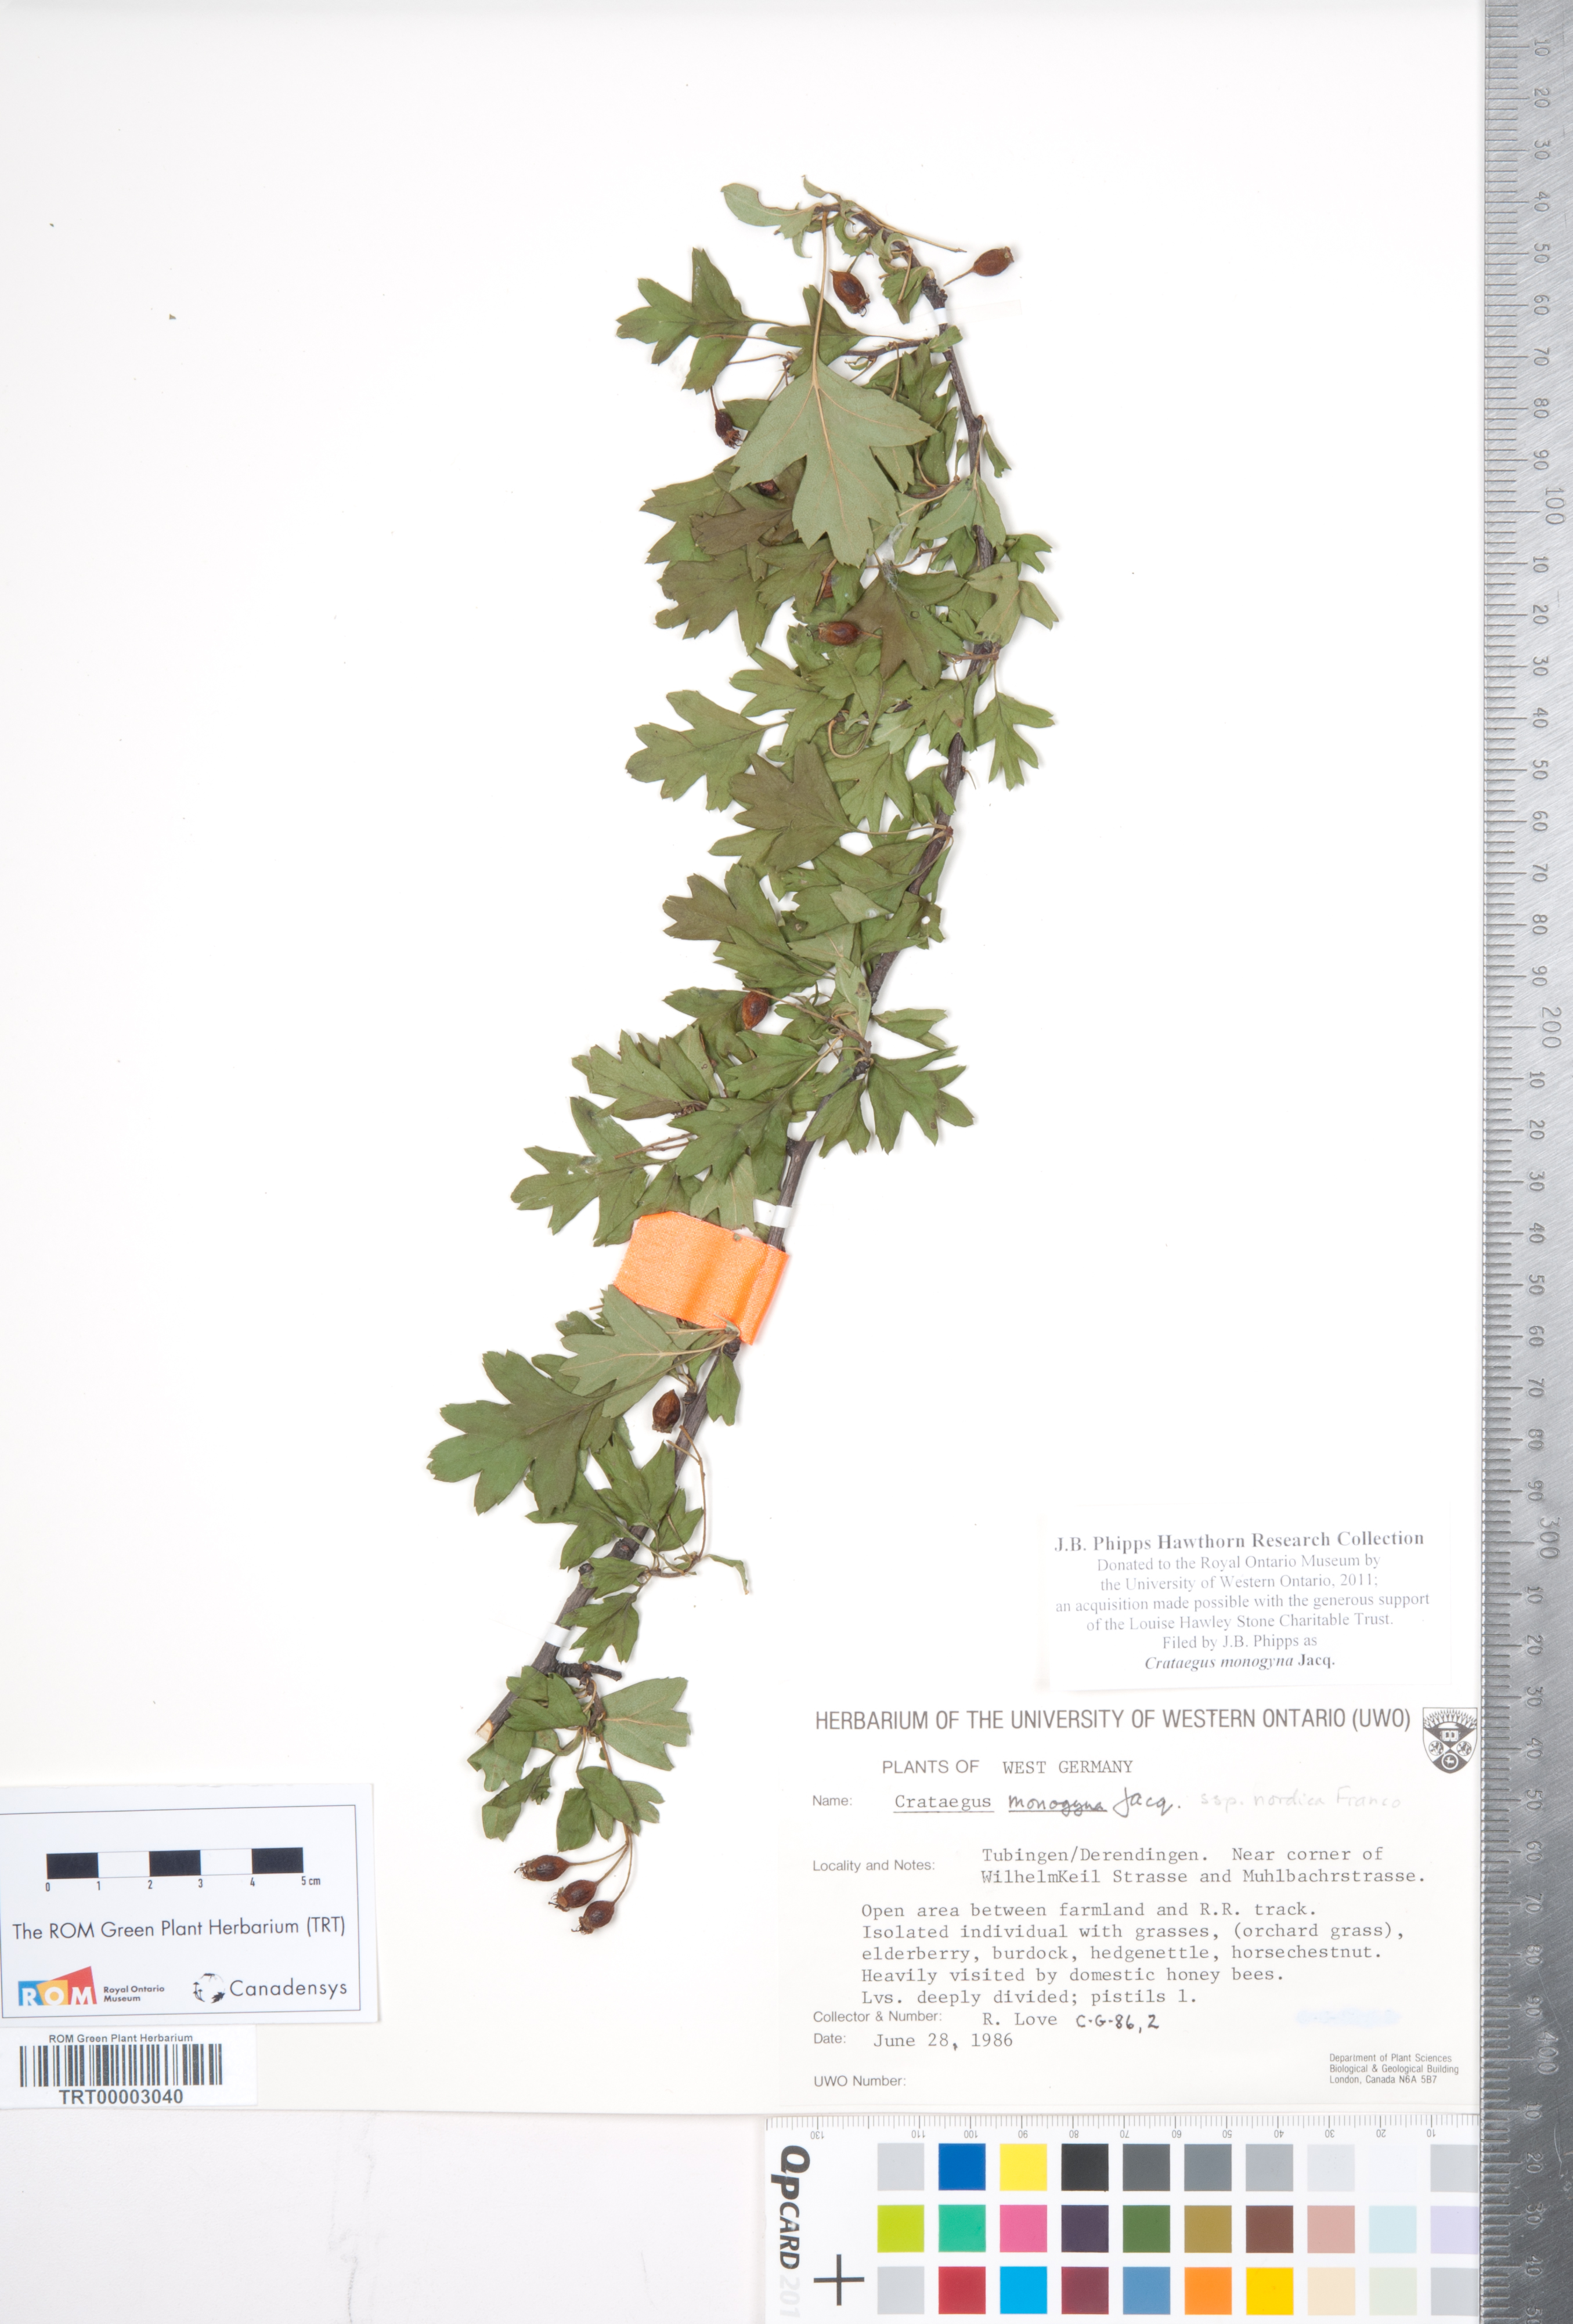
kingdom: Plantae
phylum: Tracheophyta
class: Magnoliopsida
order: Rosales
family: Rosaceae
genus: Crataegus
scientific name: Crataegus monogyna
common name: Hawthorn
